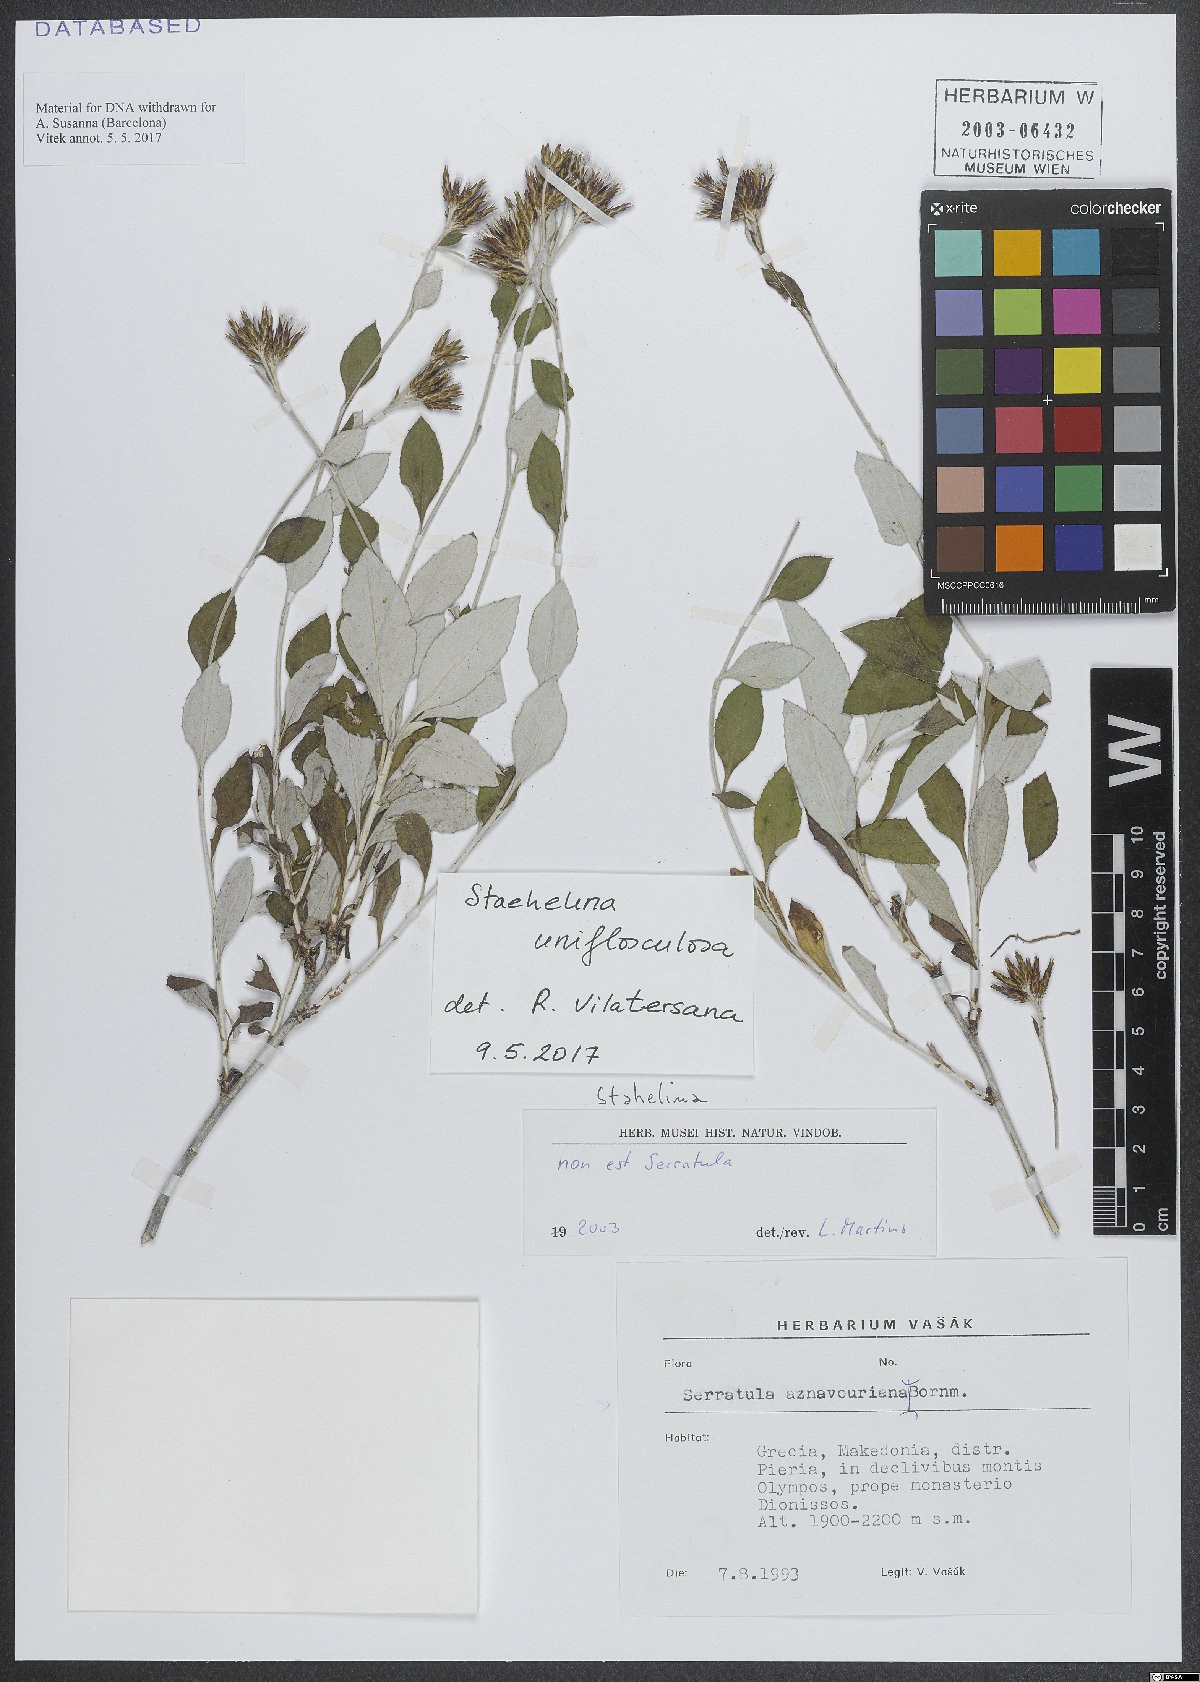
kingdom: Plantae
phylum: Tracheophyta
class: Magnoliopsida
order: Asterales
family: Asteraceae
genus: Staehelina
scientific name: Staehelina uniflosculosa
